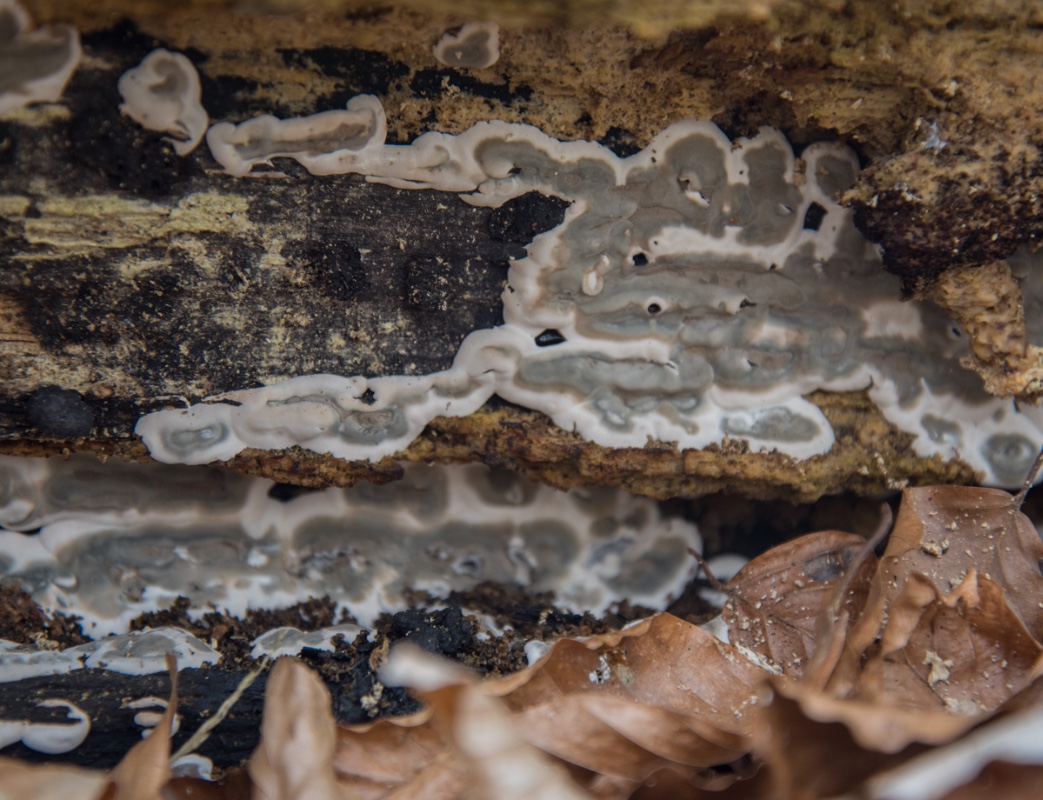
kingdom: Fungi
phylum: Ascomycota
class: Sordariomycetes
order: Xylariales
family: Xylariaceae
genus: Kretzschmaria
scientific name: Kretzschmaria deusta
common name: stor kulsvamp
